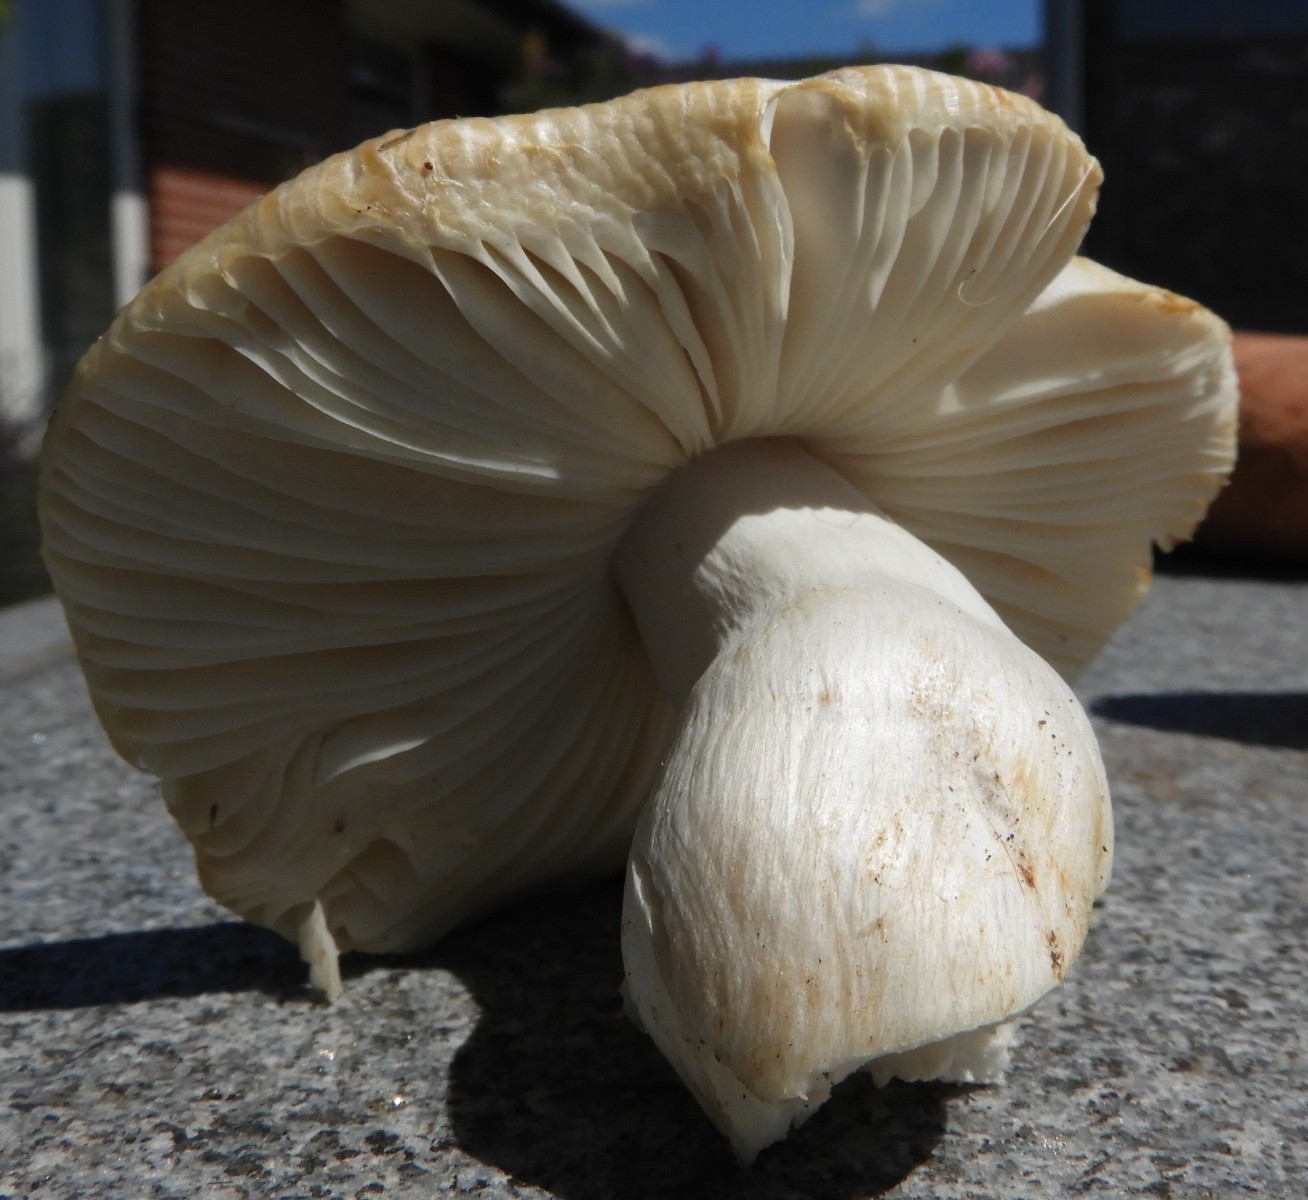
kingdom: Fungi
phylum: Basidiomycota
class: Agaricomycetes
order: Russulales
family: Russulaceae
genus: Russula
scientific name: Russula recondita
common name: mild kam-skørhat
